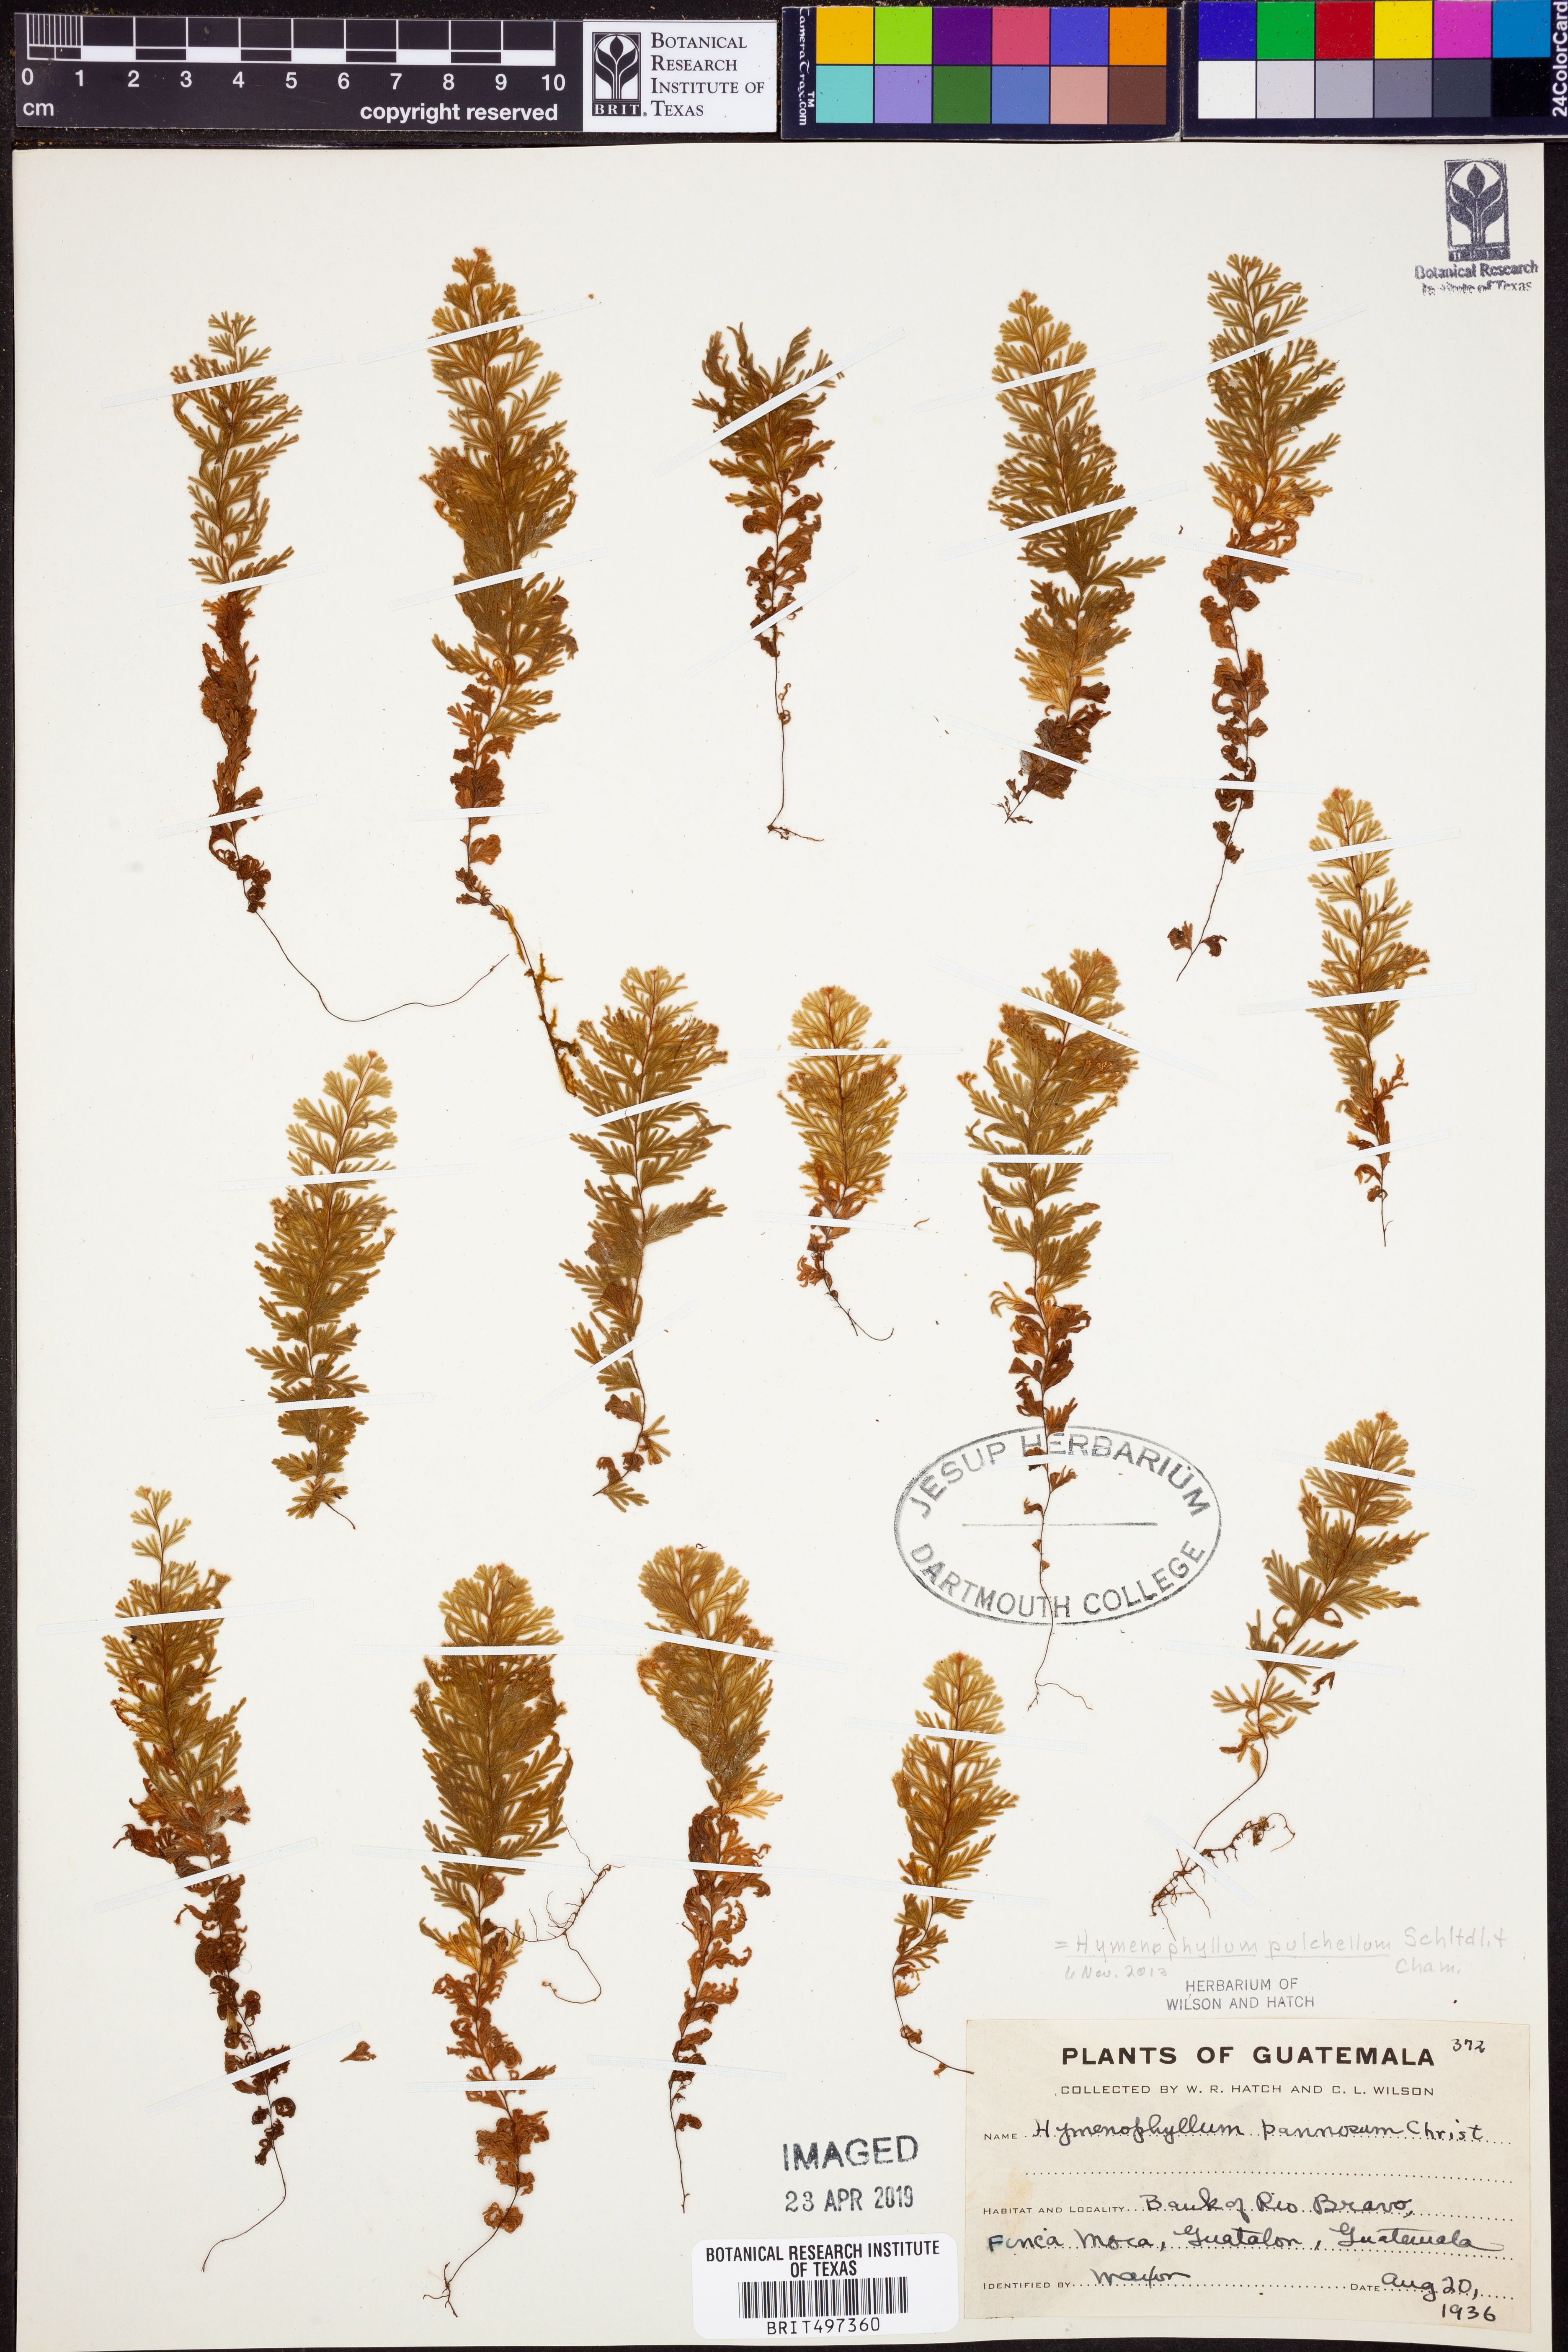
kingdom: Plantae
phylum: Tracheophyta
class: Polypodiopsida
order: Hymenophyllales
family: Hymenophyllaceae
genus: Hymenophyllum
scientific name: Hymenophyllum pulchellum
